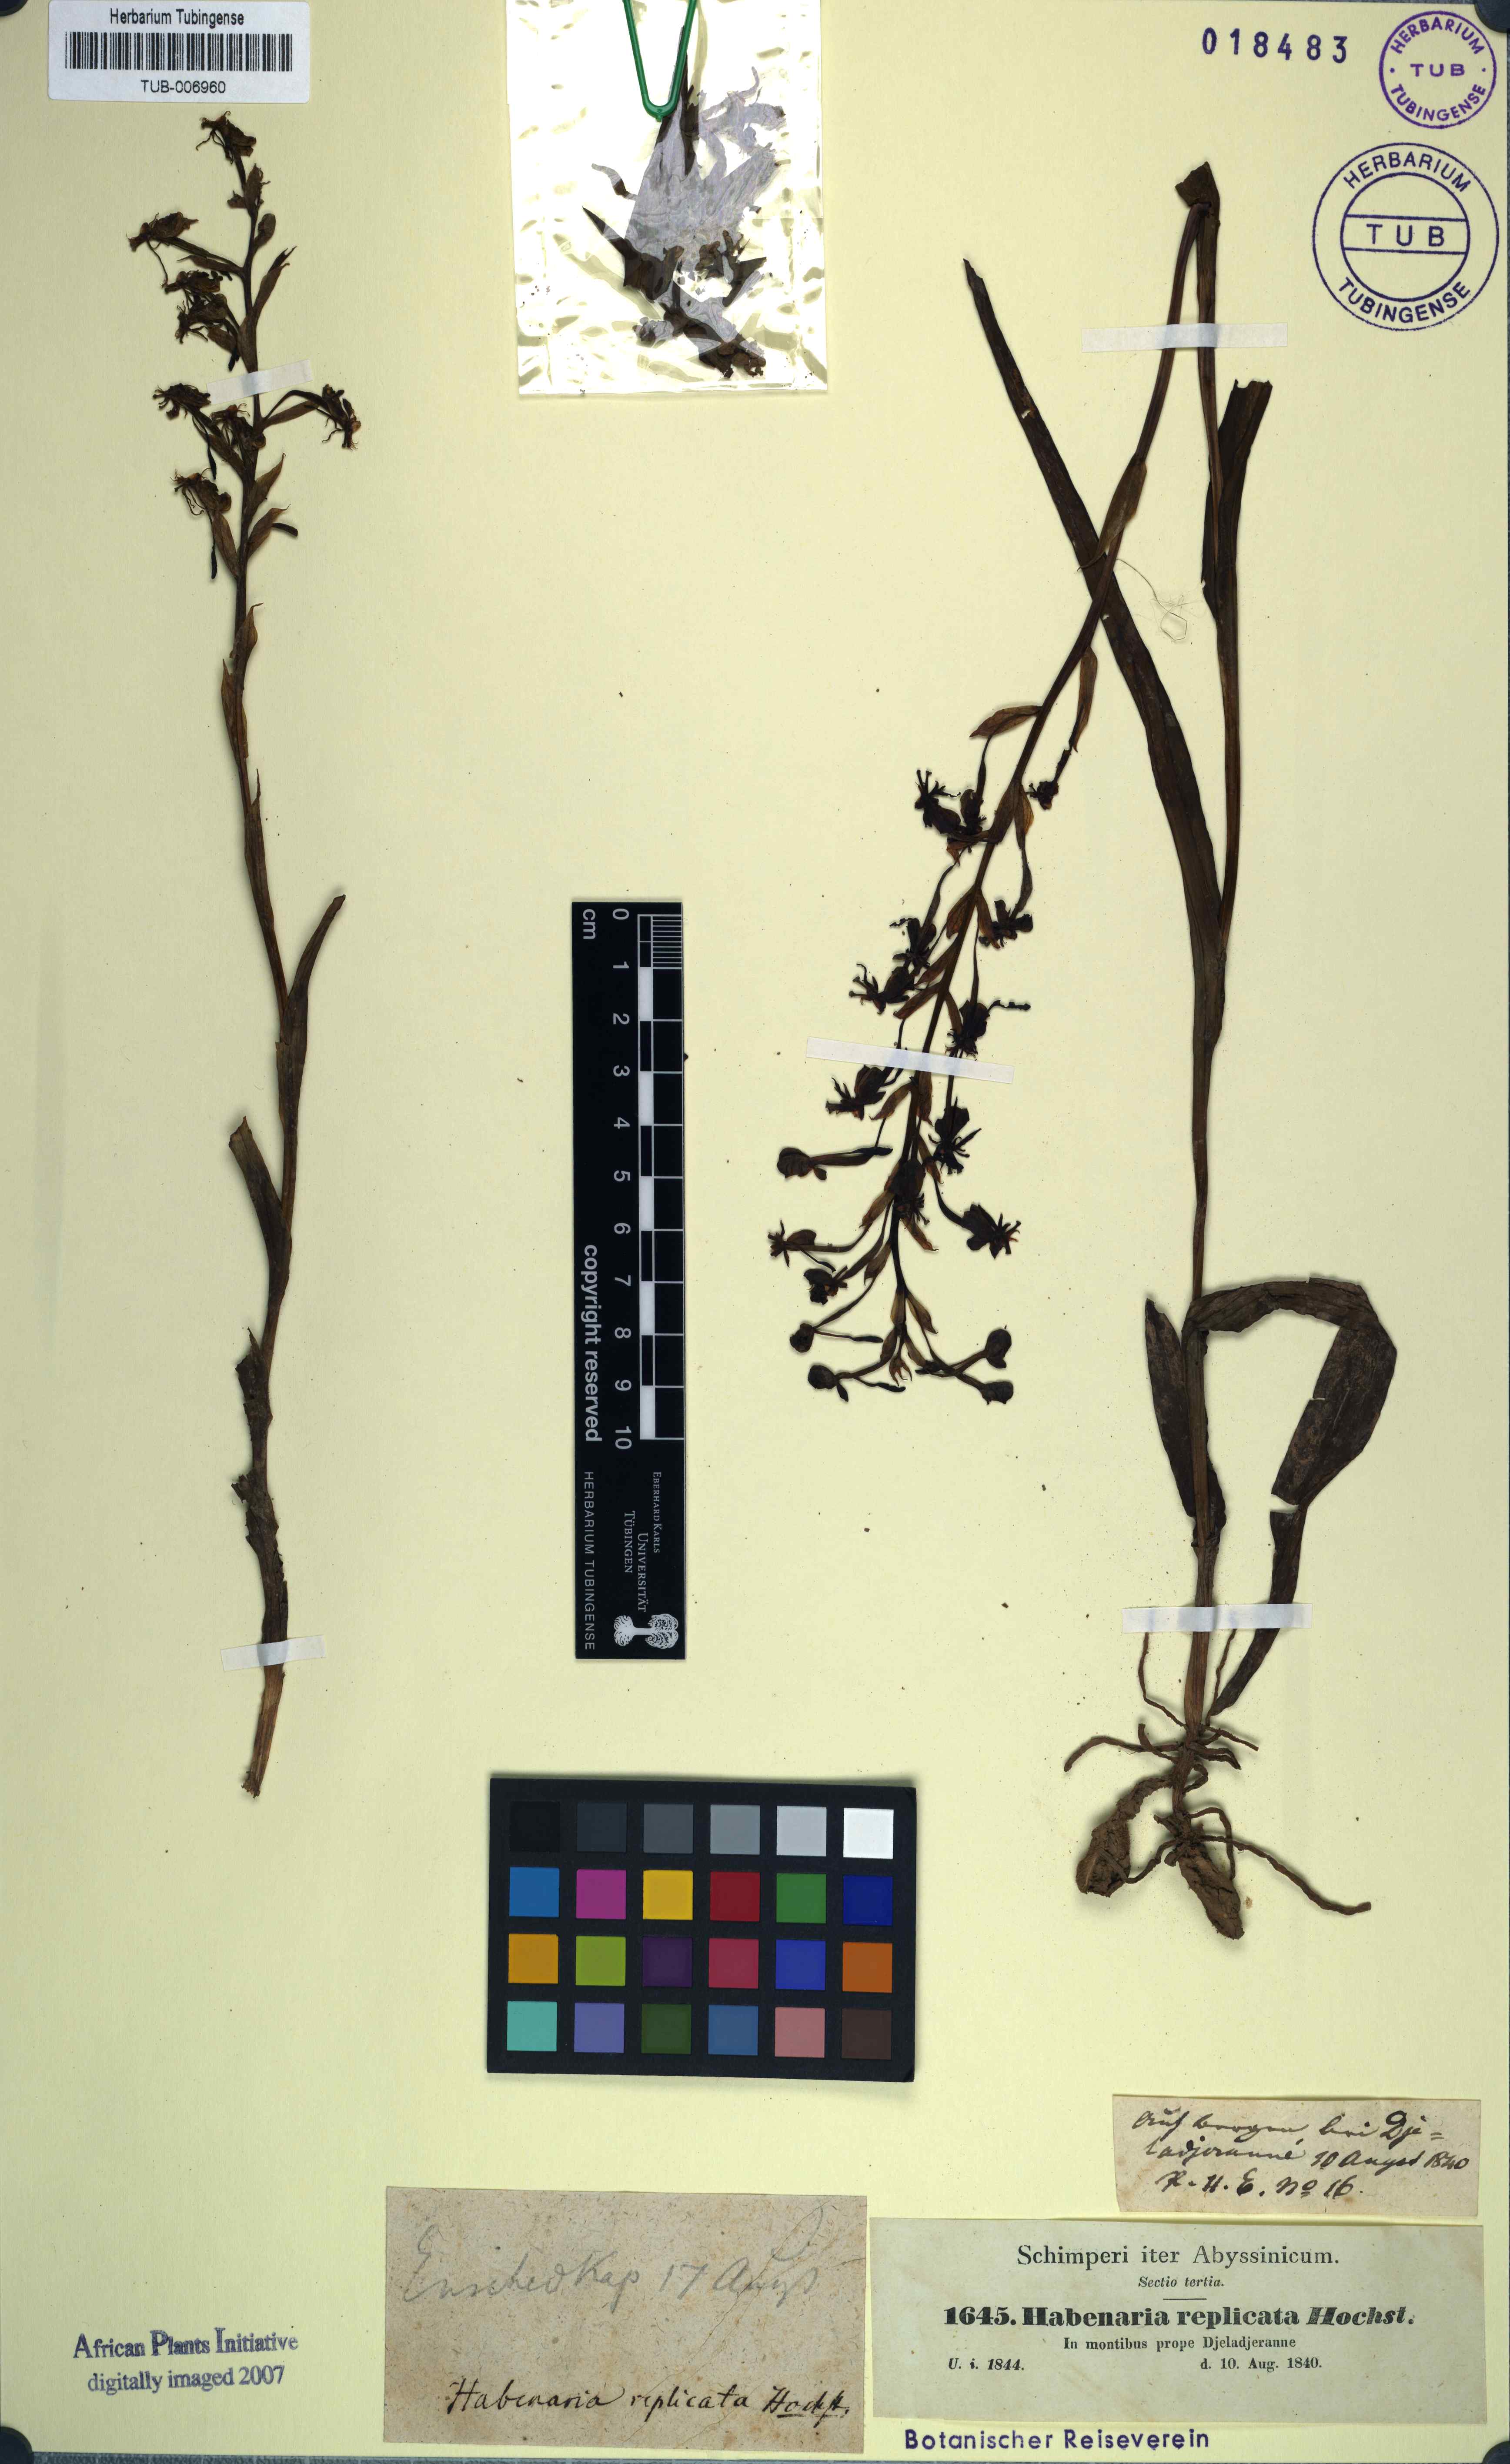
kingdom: Plantae
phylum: Tracheophyta
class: Liliopsida
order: Asparagales
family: Orchidaceae
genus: Platanthera
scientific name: Platanthera replicata
